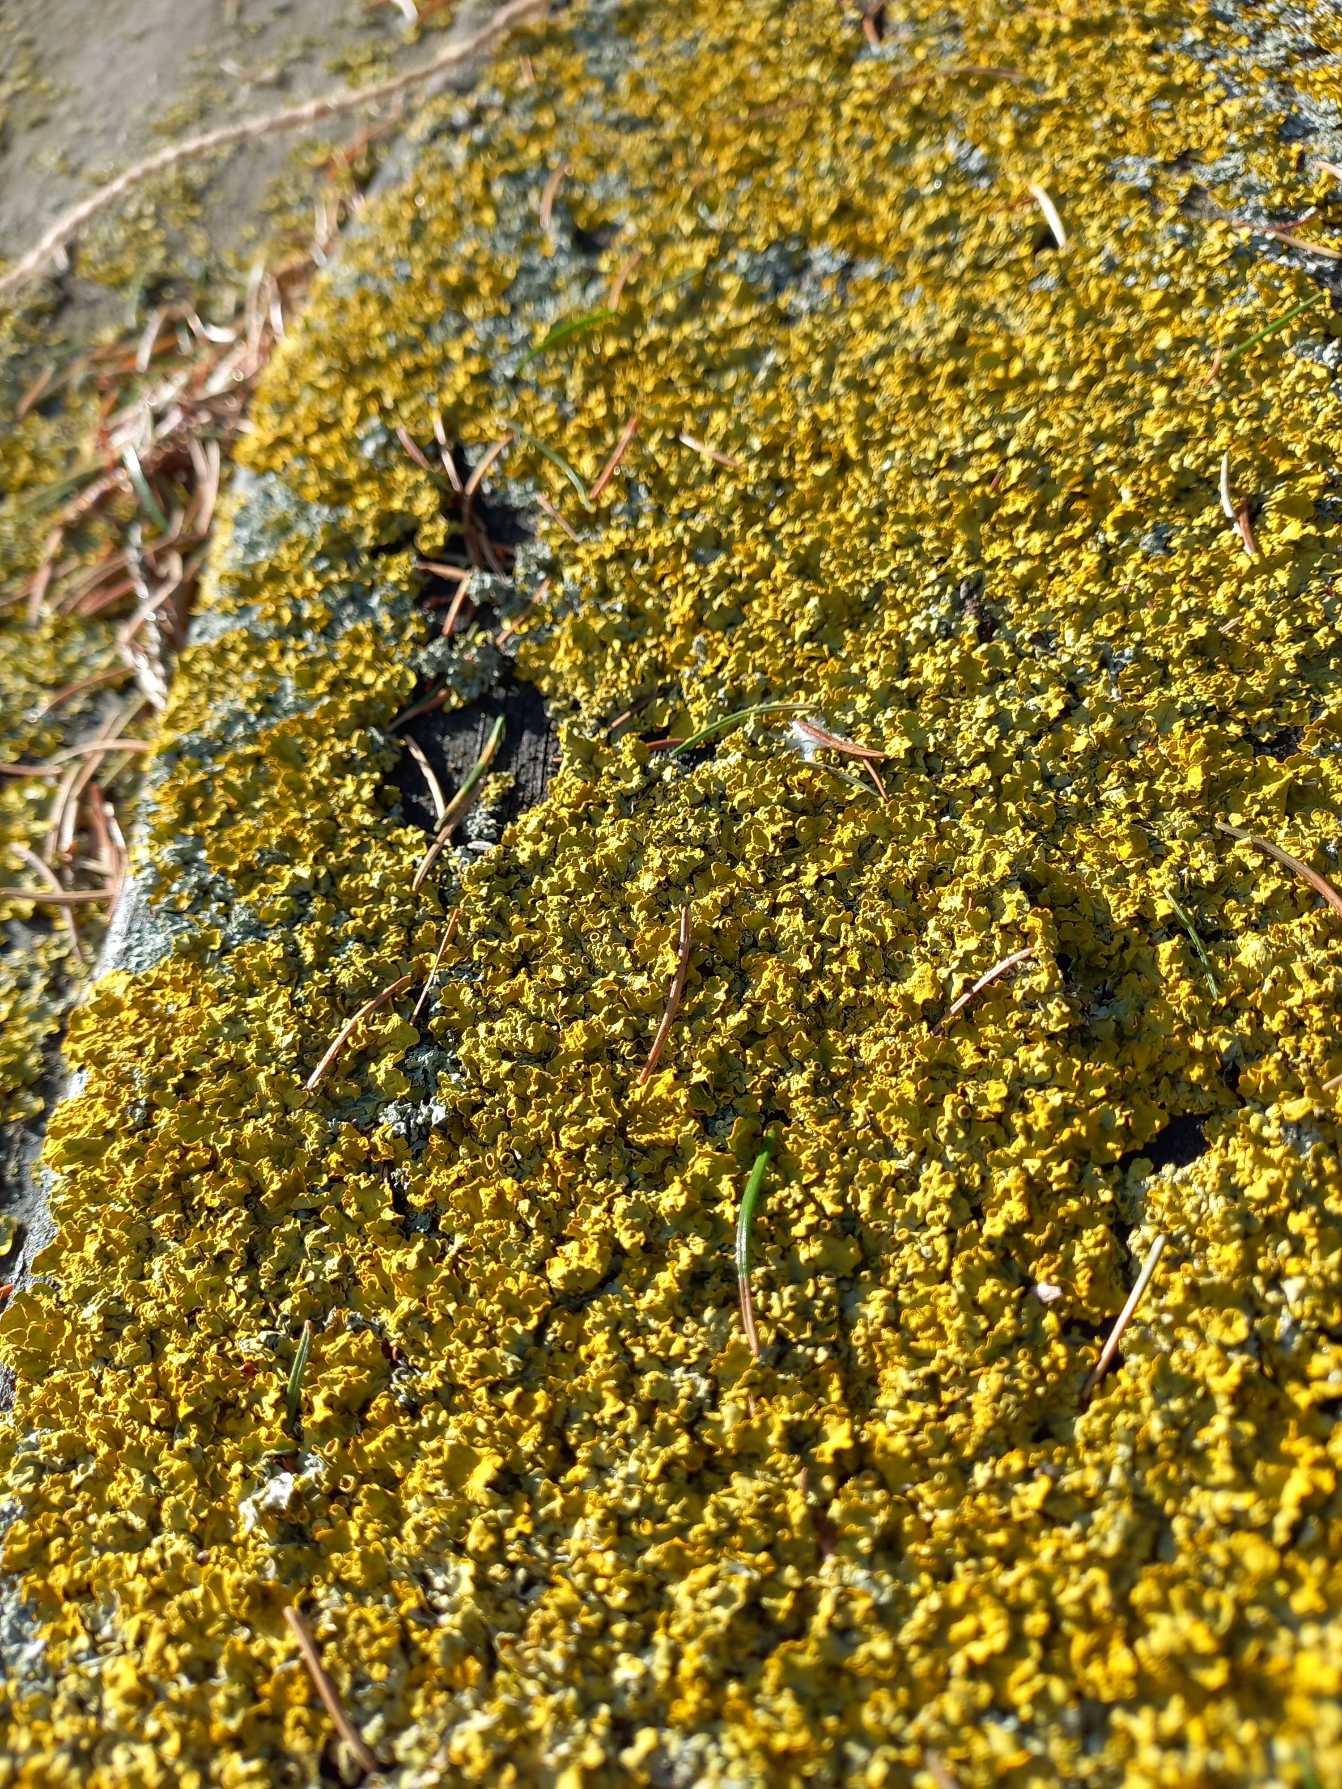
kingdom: Fungi
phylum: Ascomycota
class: Lecanoromycetes
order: Teloschistales
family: Teloschistaceae
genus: Xanthoria
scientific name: Xanthoria parietina
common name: Almindelig væggelav
